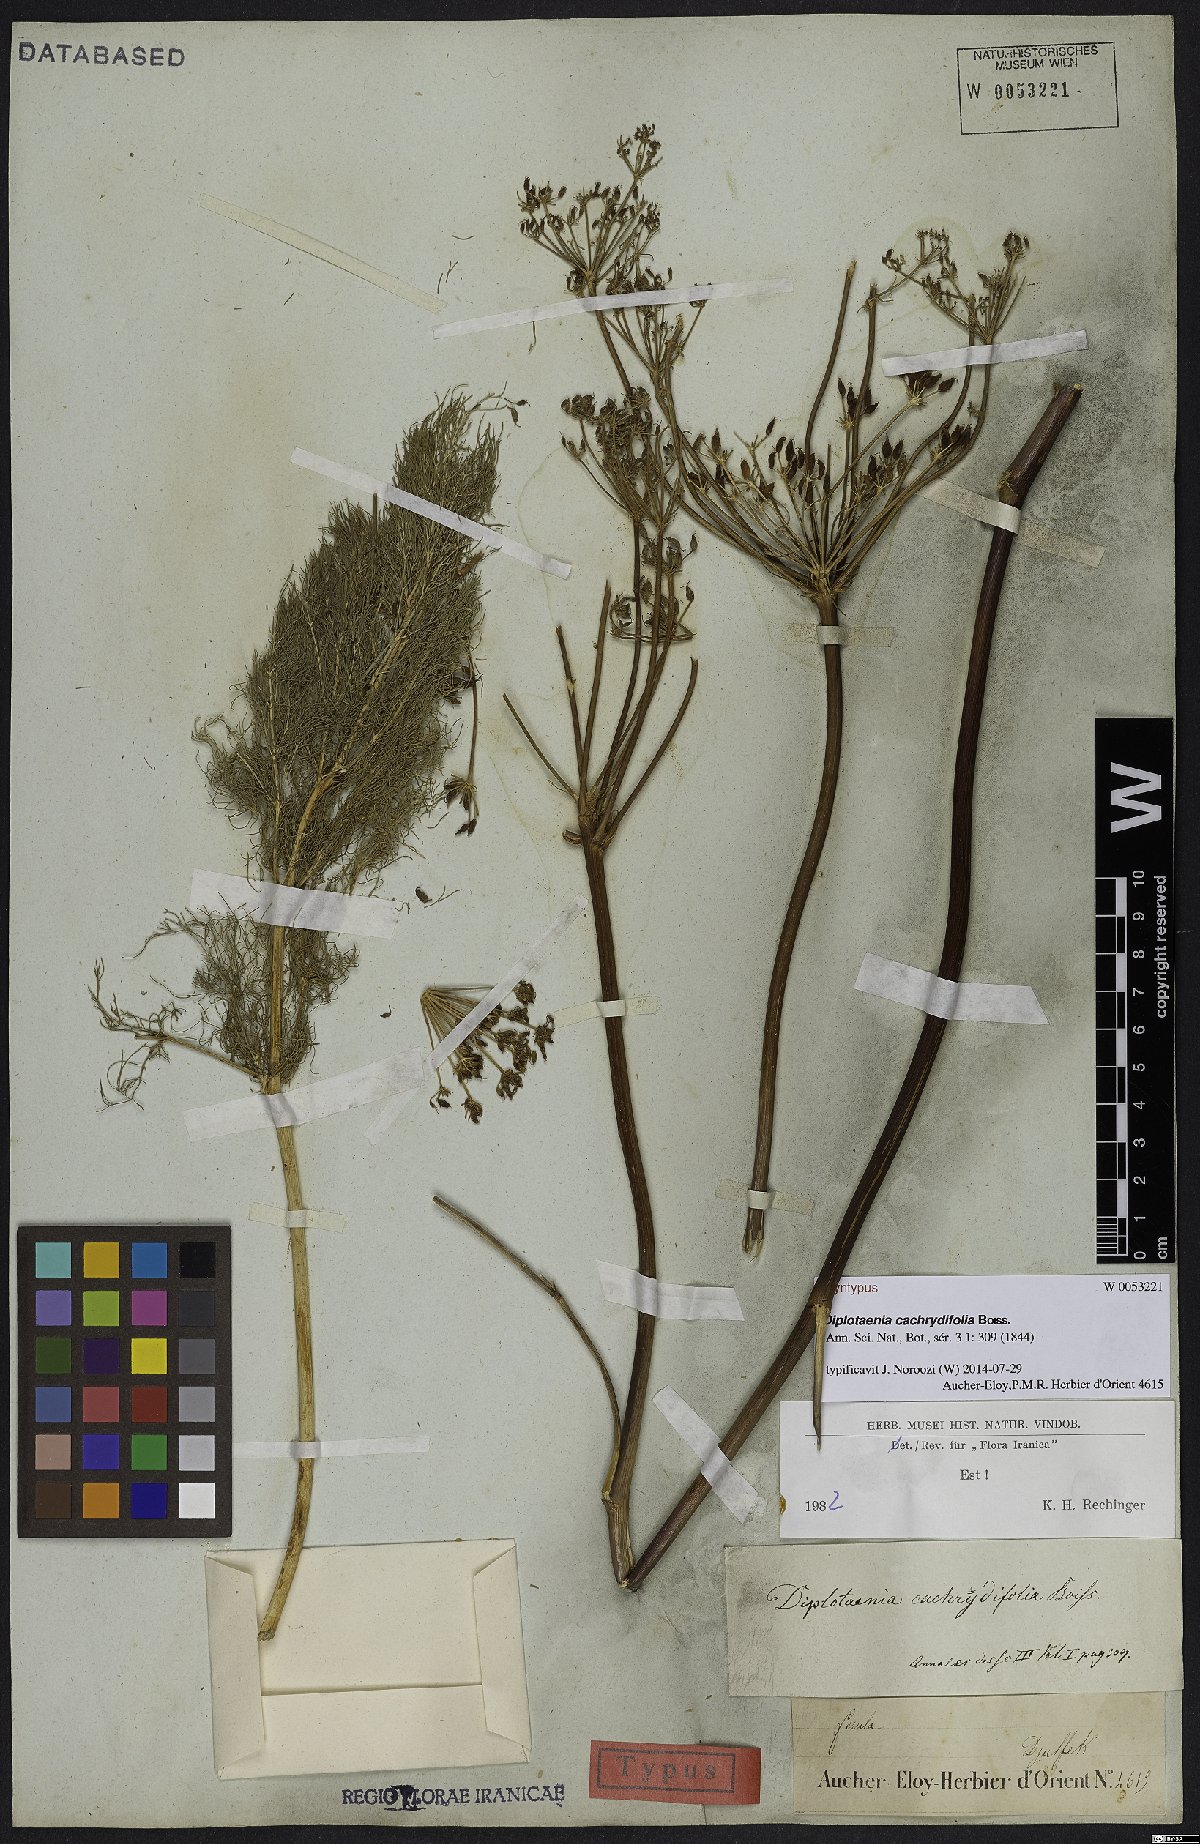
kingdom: Plantae
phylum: Tracheophyta
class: Magnoliopsida
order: Apiales
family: Apiaceae
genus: Diplotaenia
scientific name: Diplotaenia cachrydifolia
